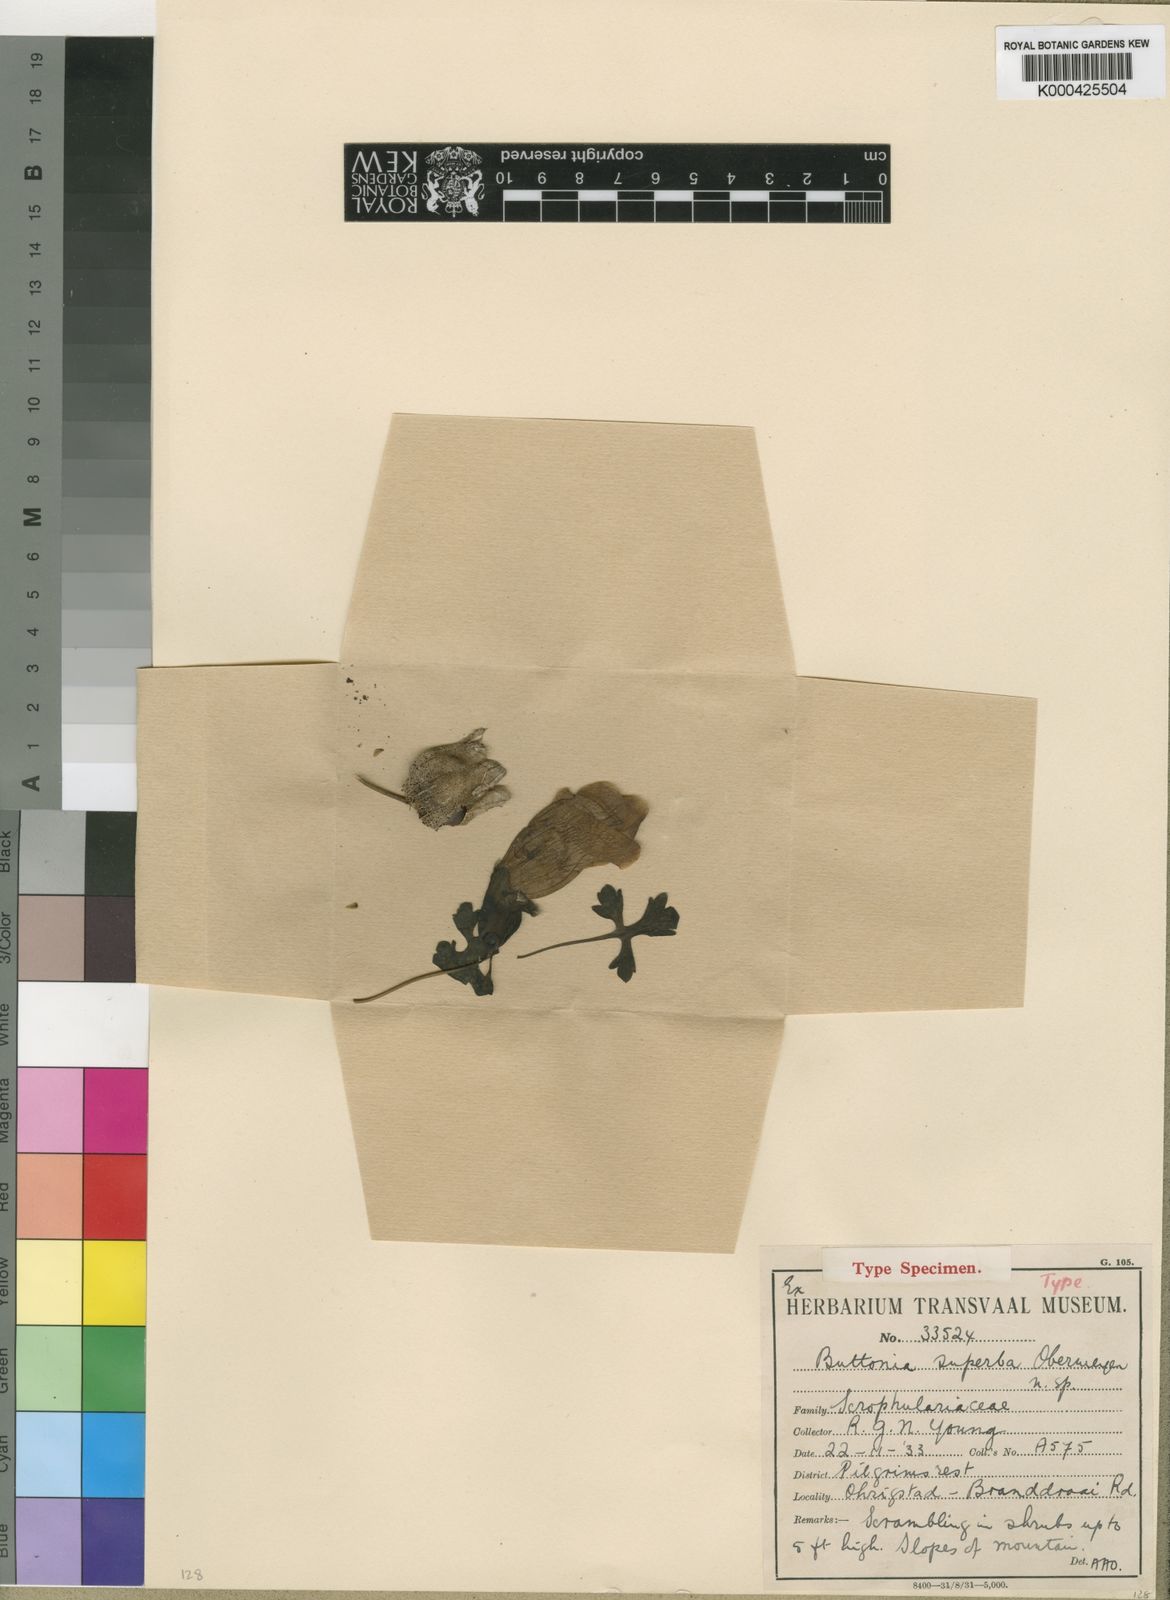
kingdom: Plantae
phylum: Tracheophyta
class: Magnoliopsida
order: Lamiales
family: Orobanchaceae
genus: Buttonia
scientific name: Buttonia superba
